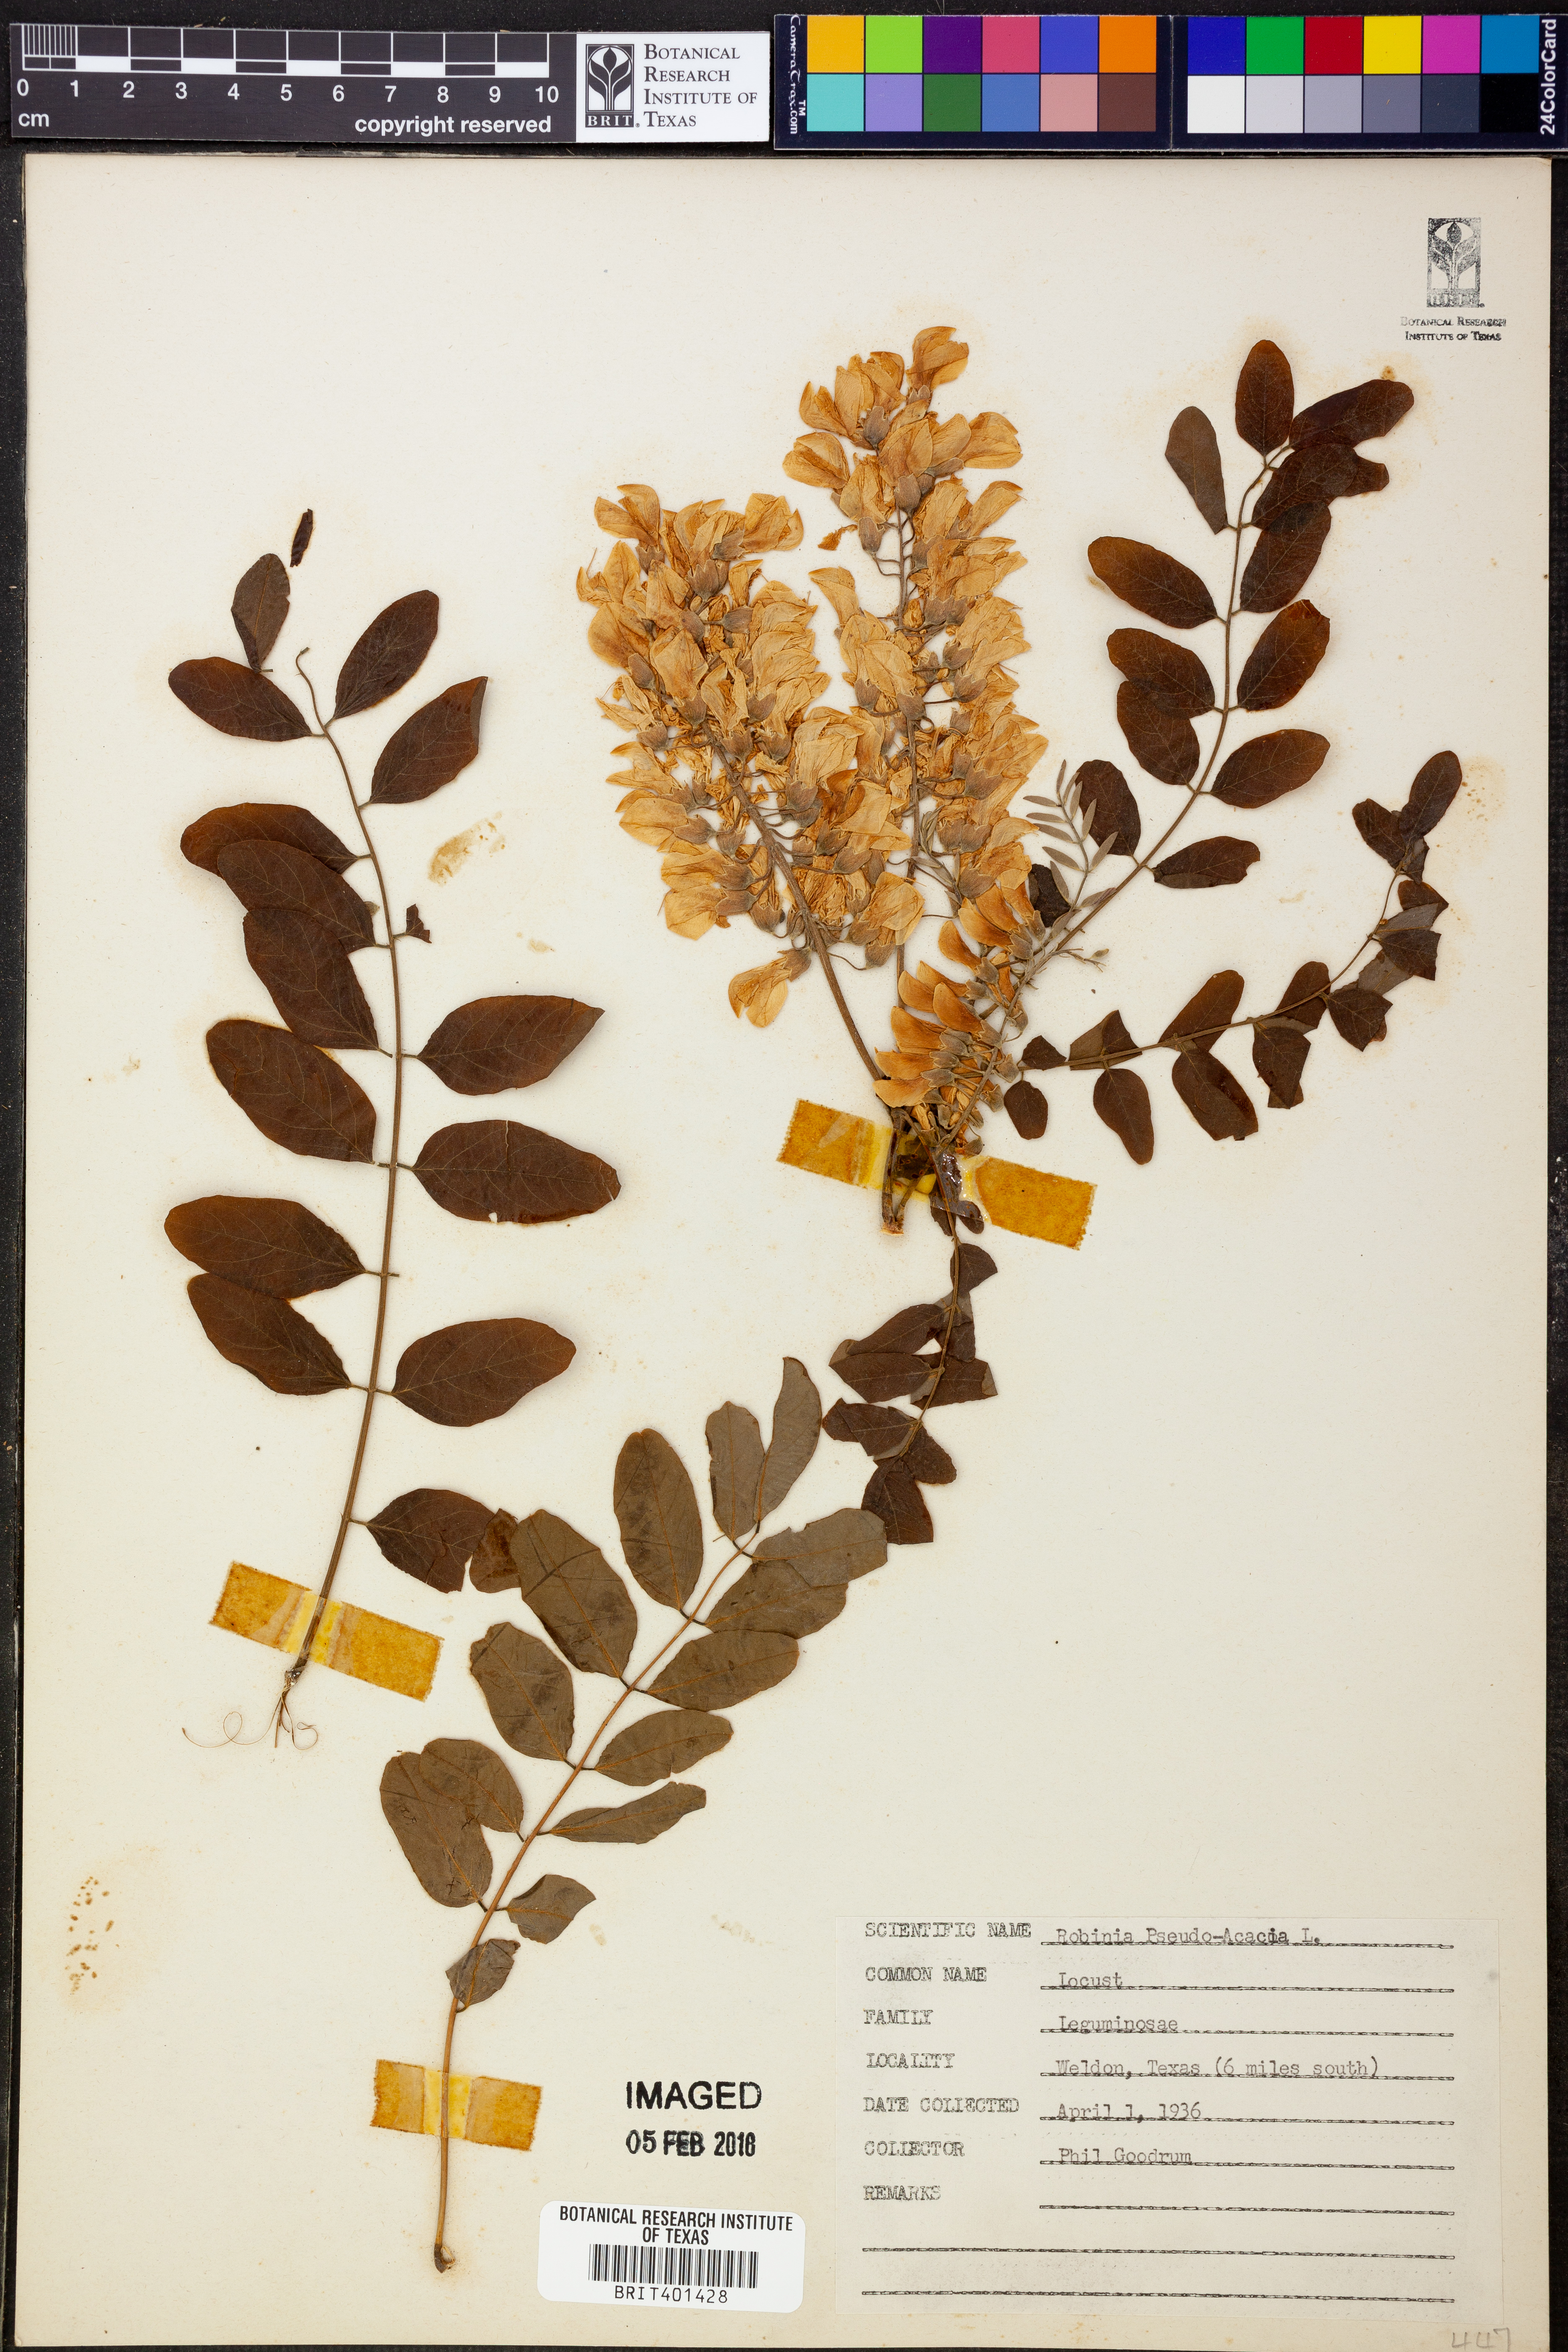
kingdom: Plantae
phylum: Tracheophyta
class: Magnoliopsida
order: Fabales
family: Fabaceae
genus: Robinia
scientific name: Robinia pseudoacacia
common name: Black locust
